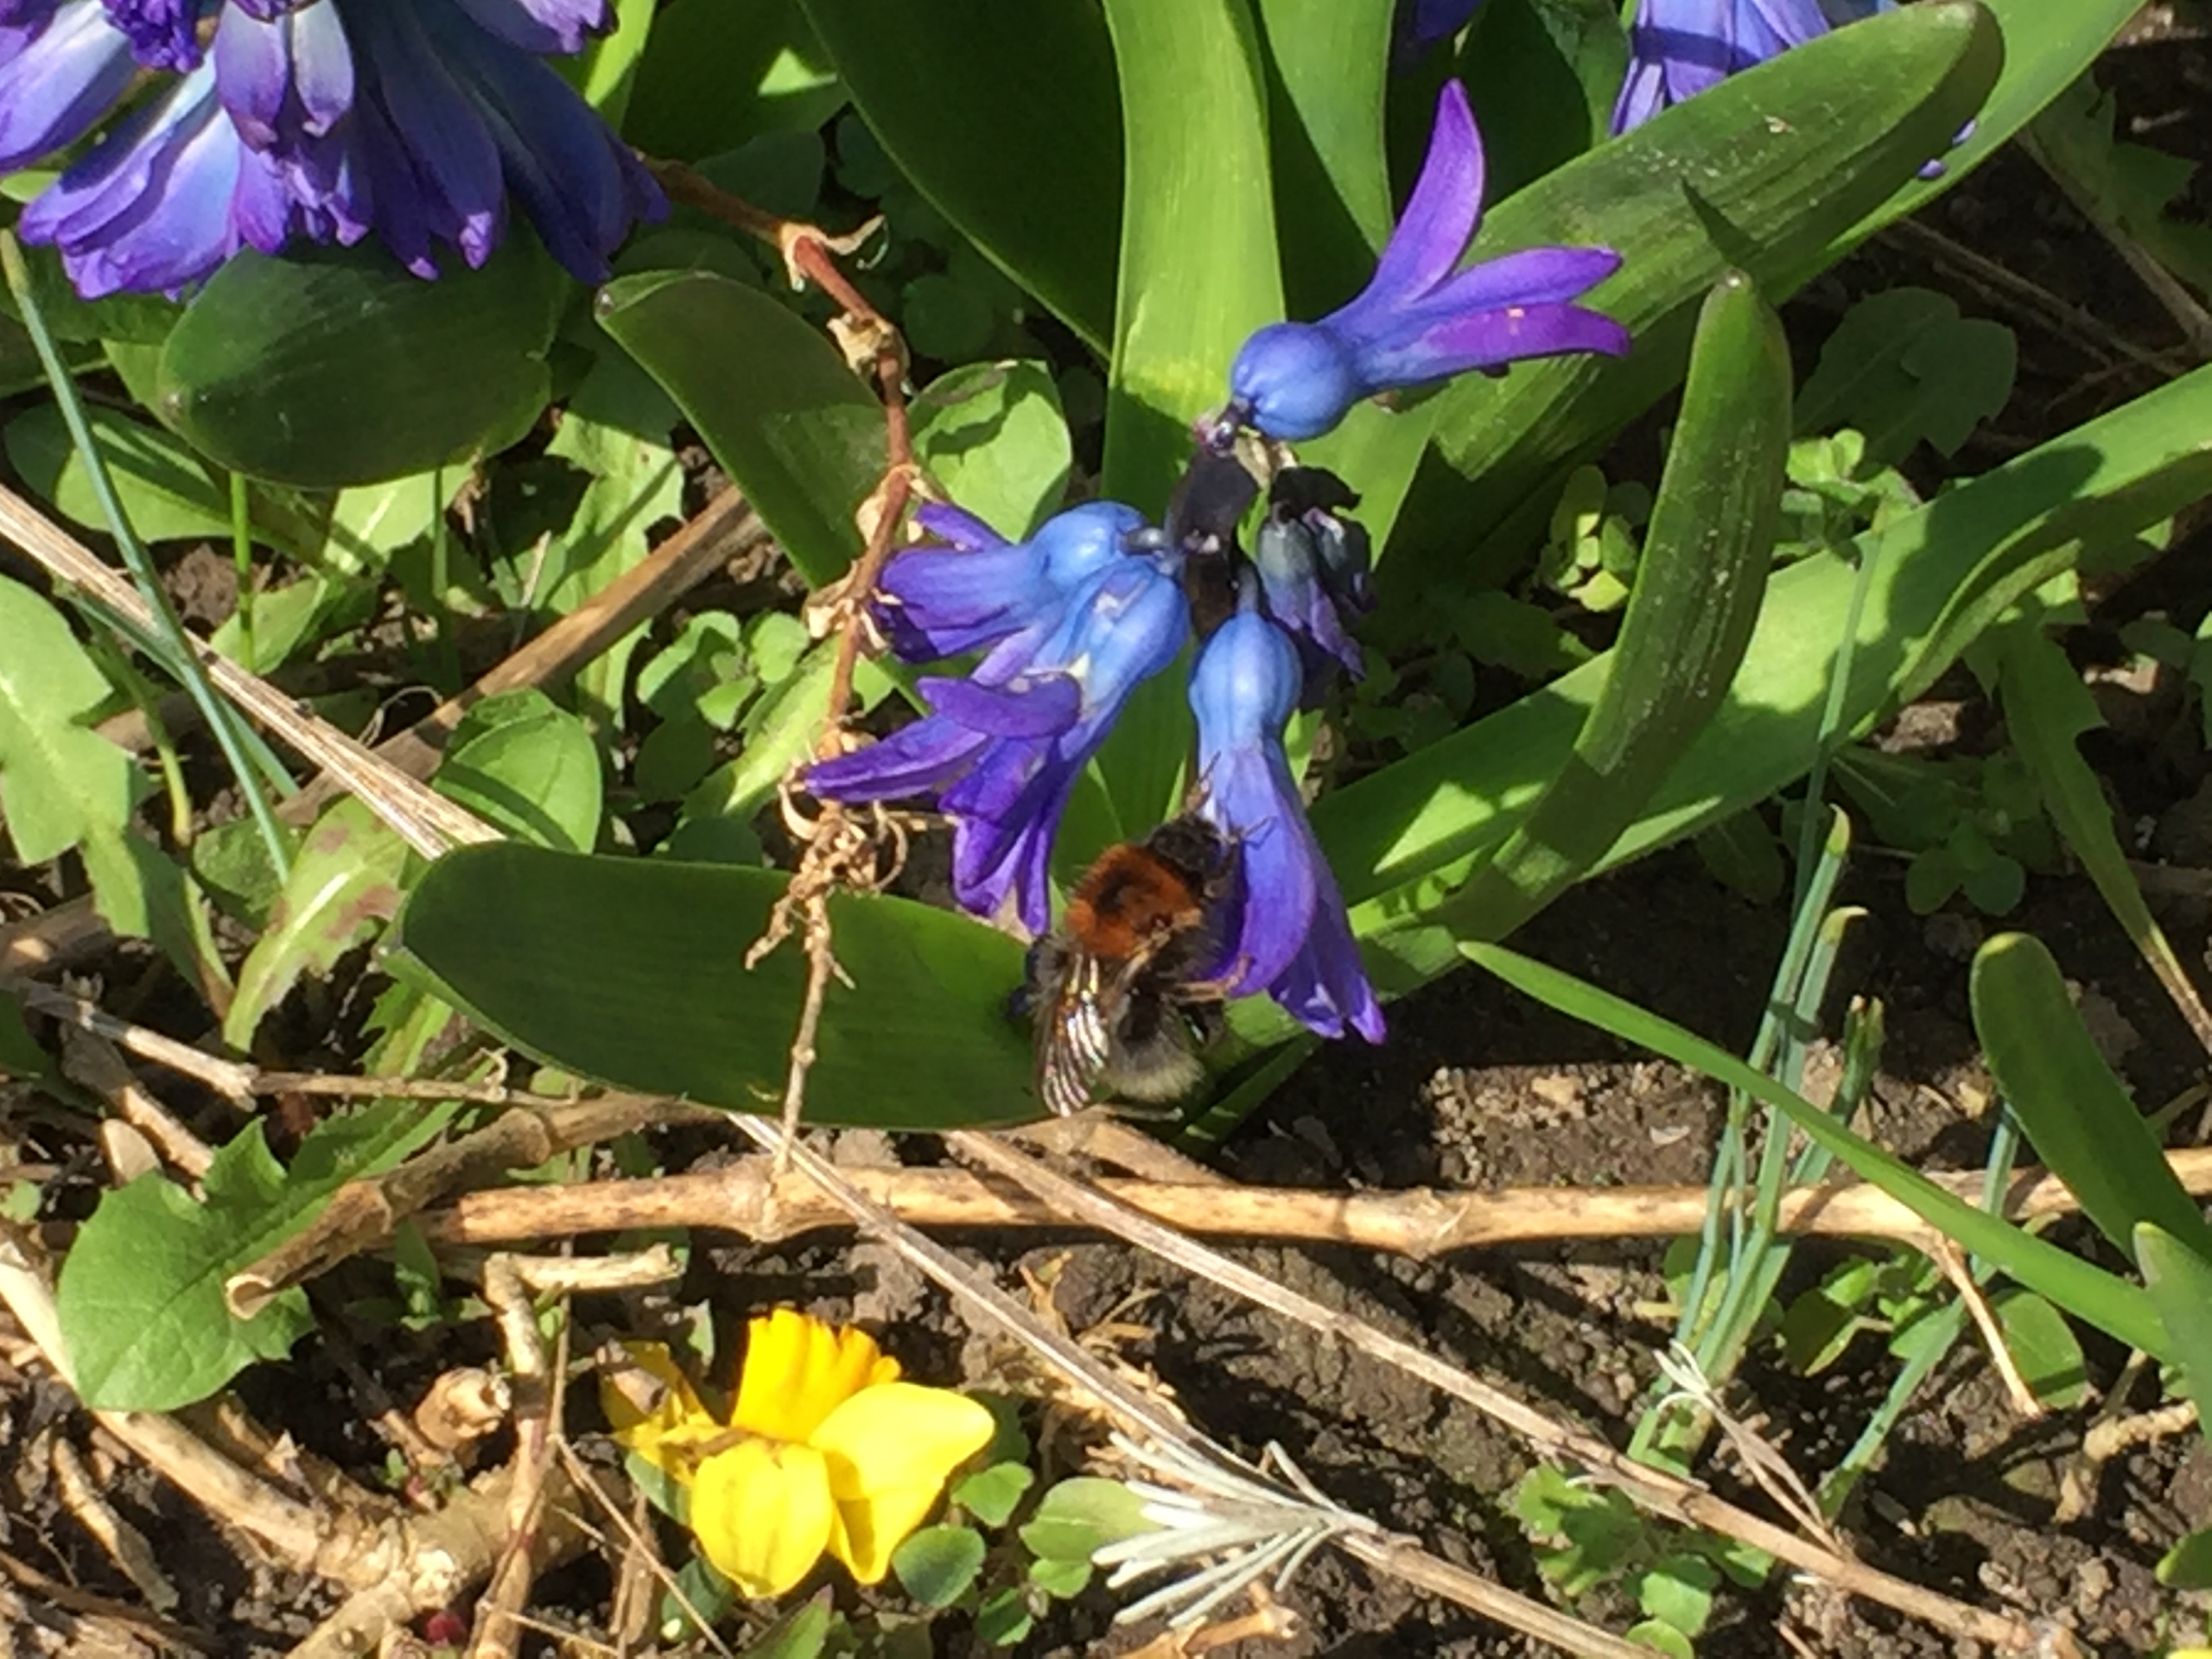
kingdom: Animalia
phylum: Arthropoda
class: Insecta
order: Hymenoptera
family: Apidae
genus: Bombus
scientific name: Bombus hypnorum
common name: Hushumle
